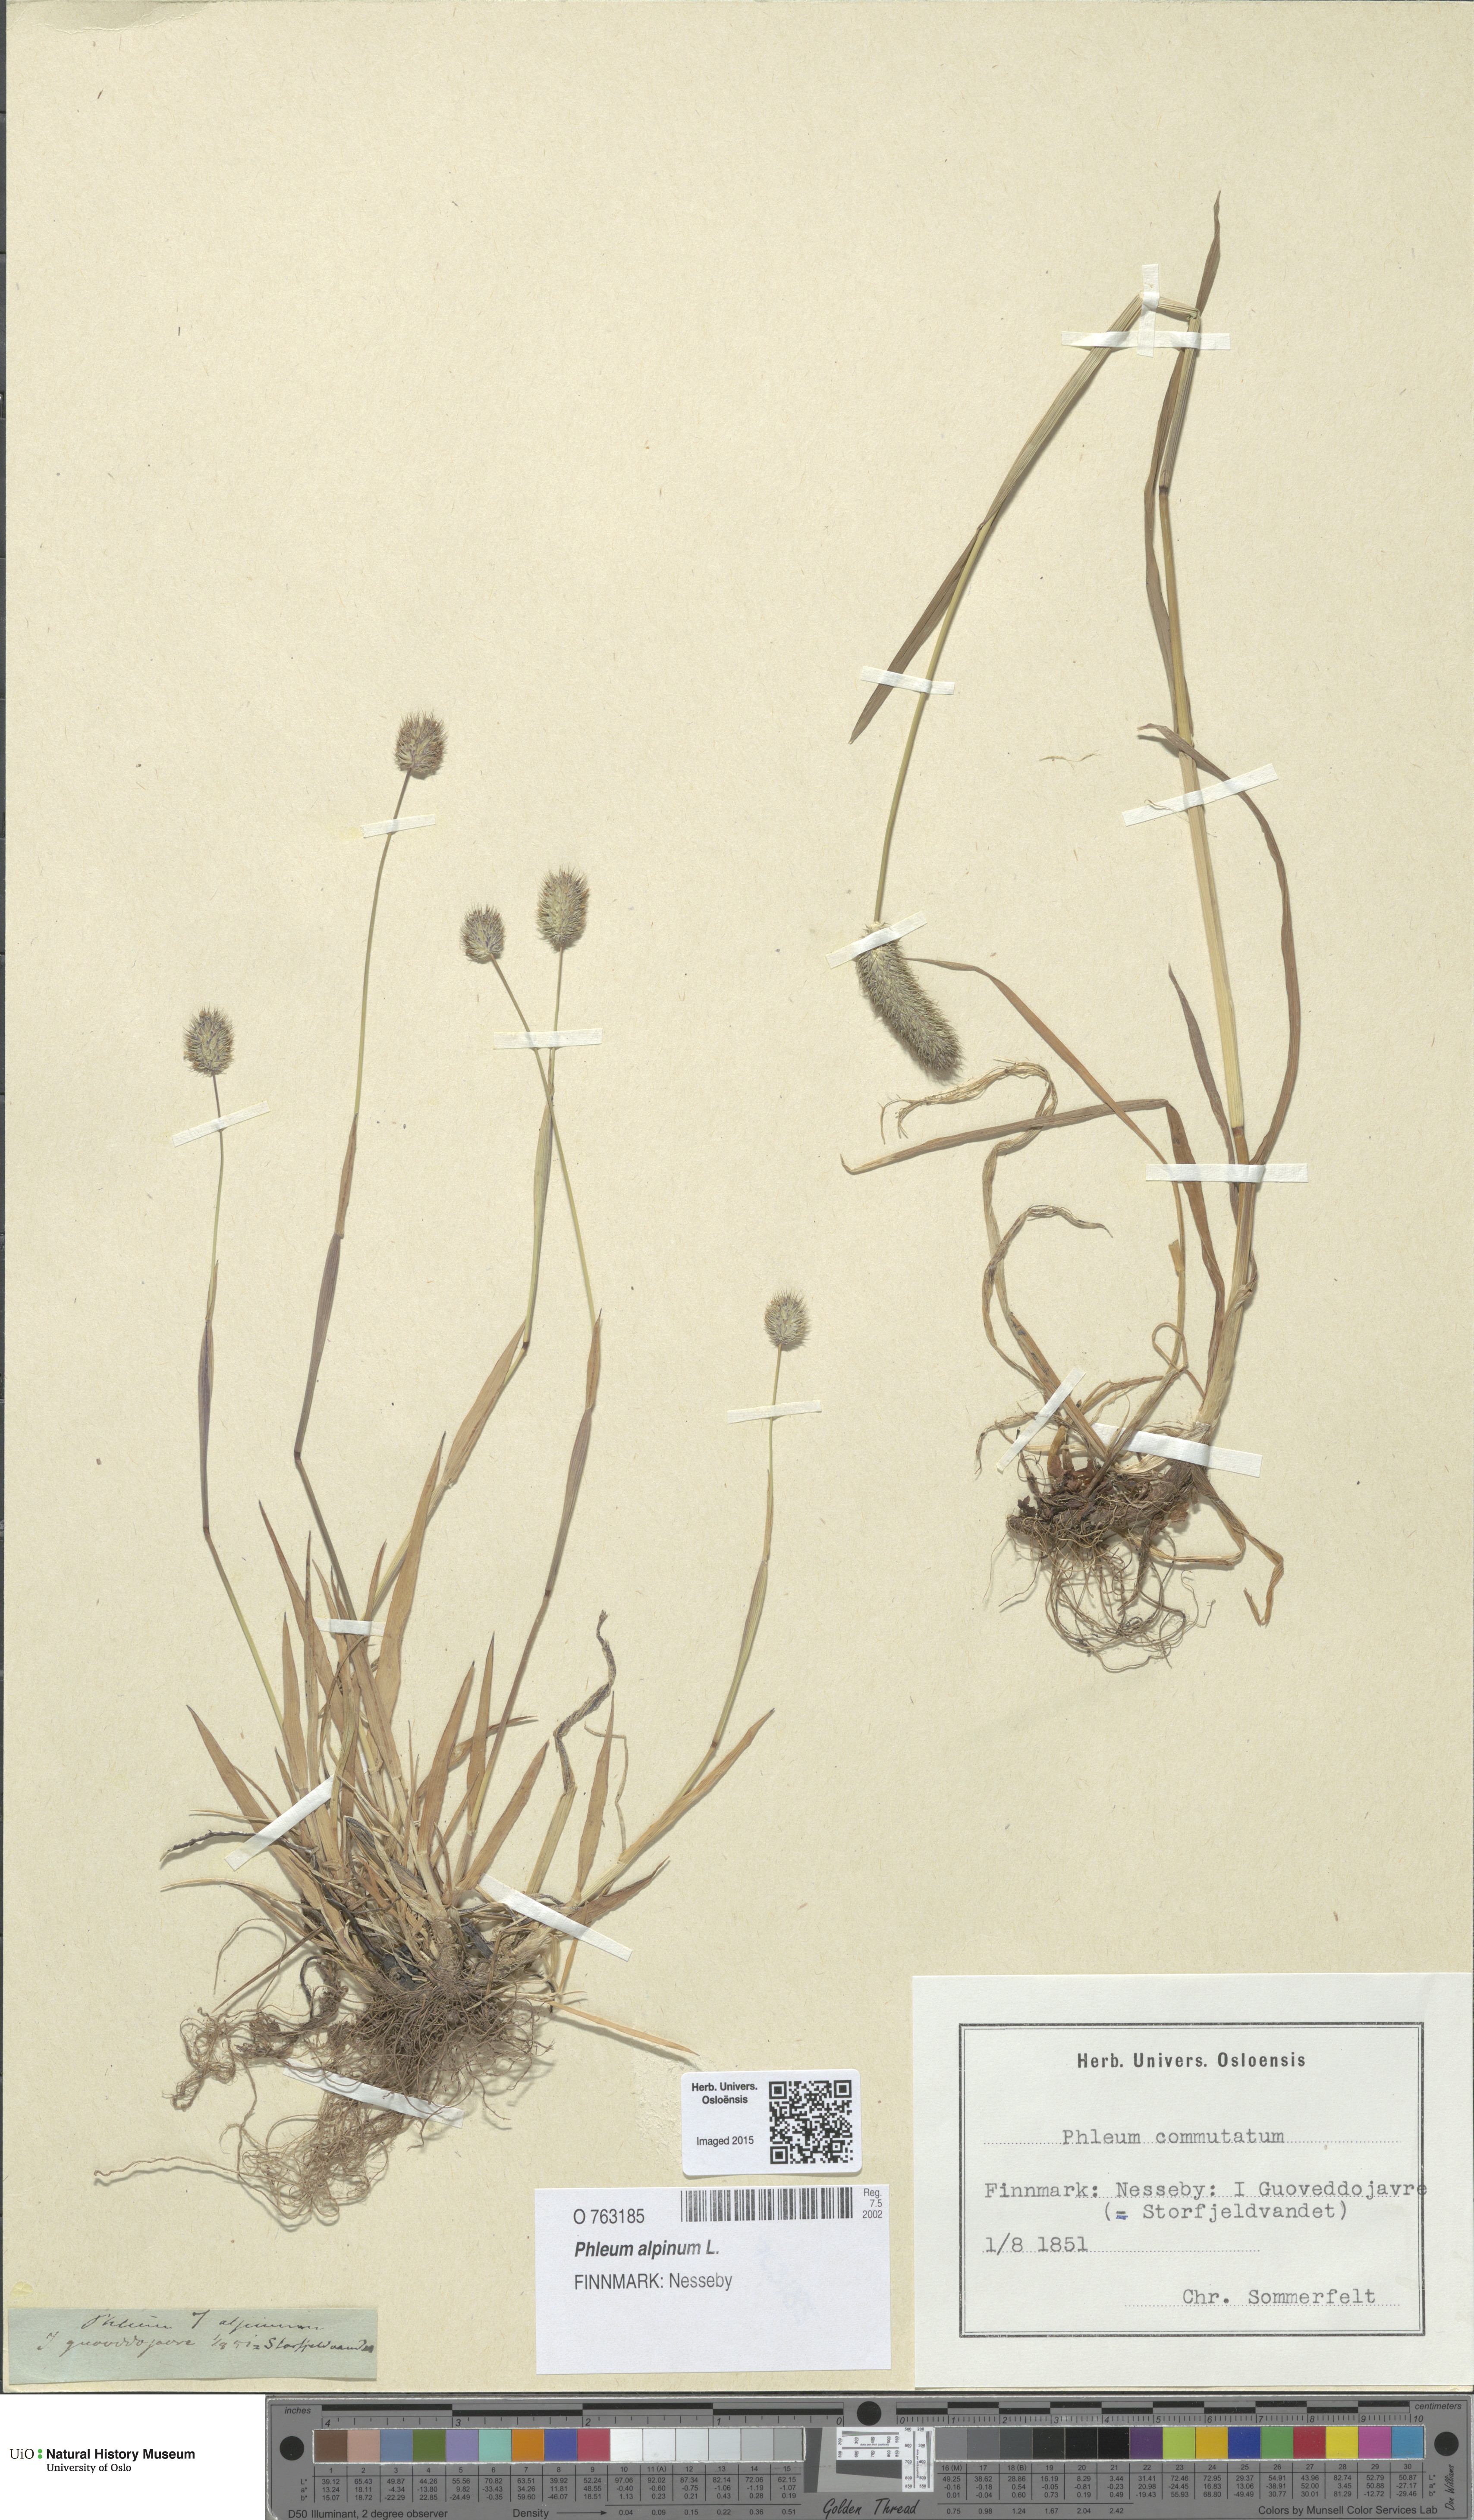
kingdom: Plantae
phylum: Tracheophyta
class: Liliopsida
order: Poales
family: Poaceae
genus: Phleum
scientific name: Phleum alpinum
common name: Alpine cat's-tail
